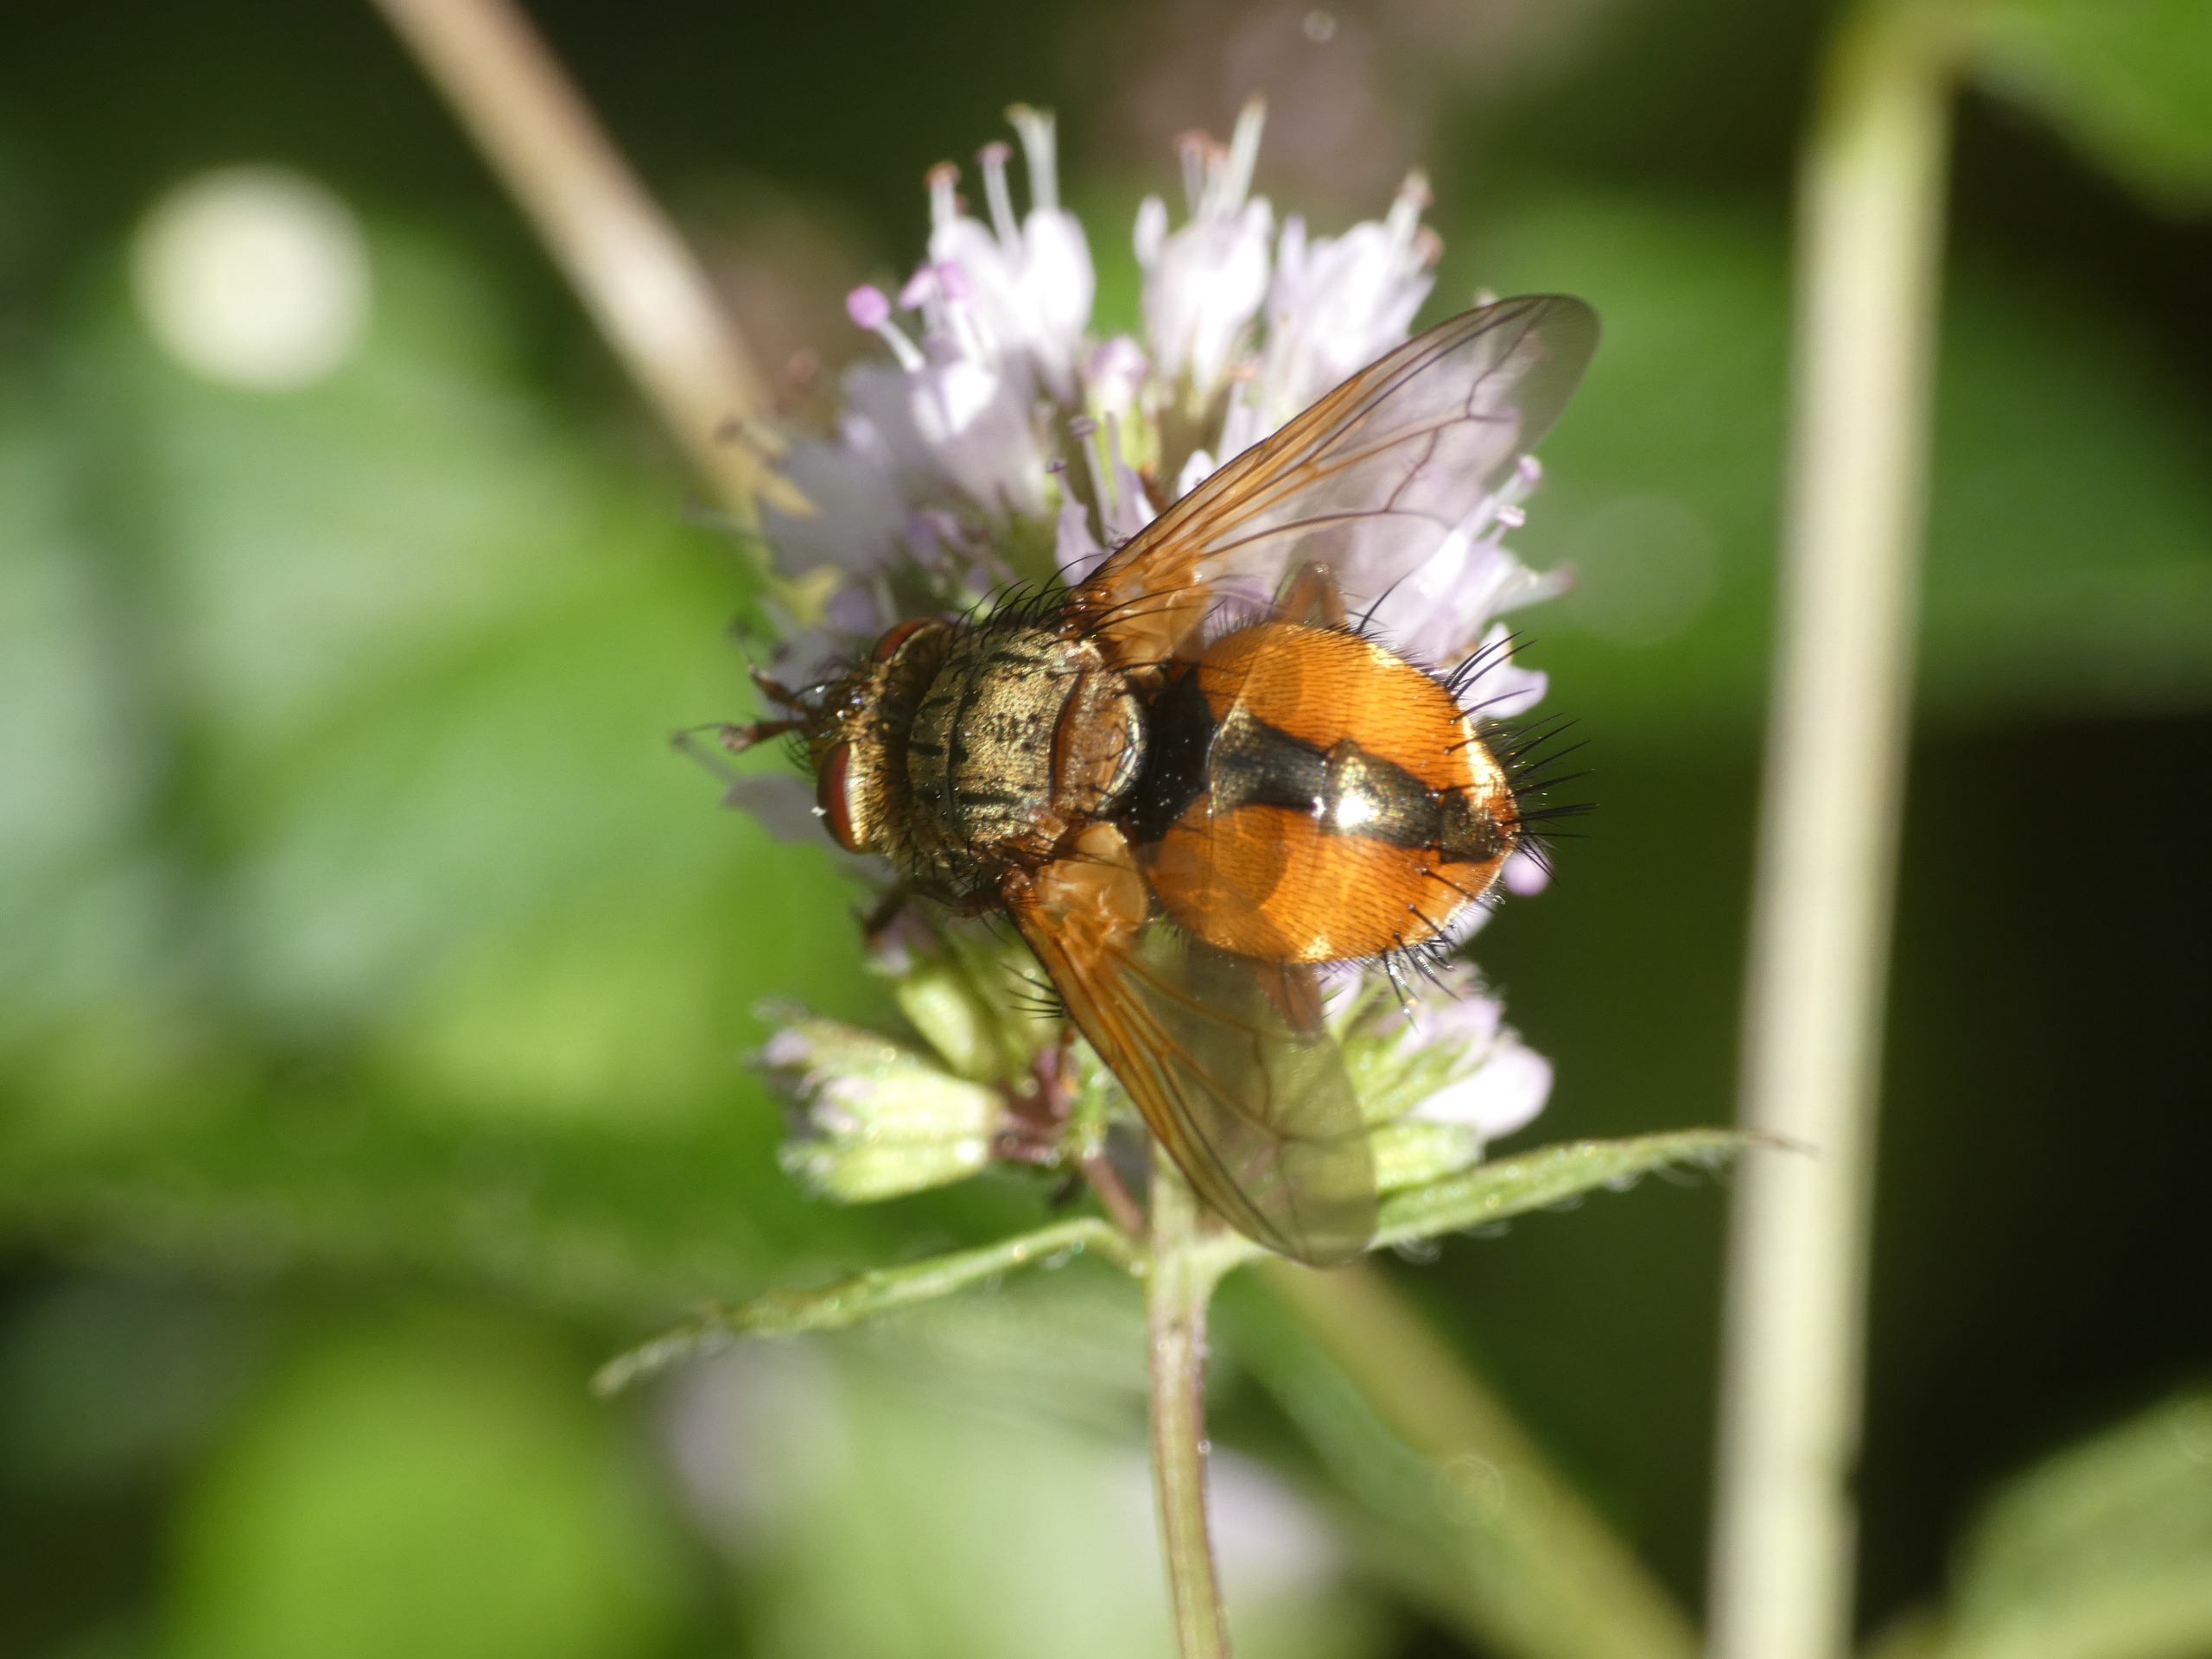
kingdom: Animalia
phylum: Arthropoda
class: Insecta
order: Diptera
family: Tachinidae
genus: Tachina
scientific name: Tachina fera
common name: Mellemfluen oskar
